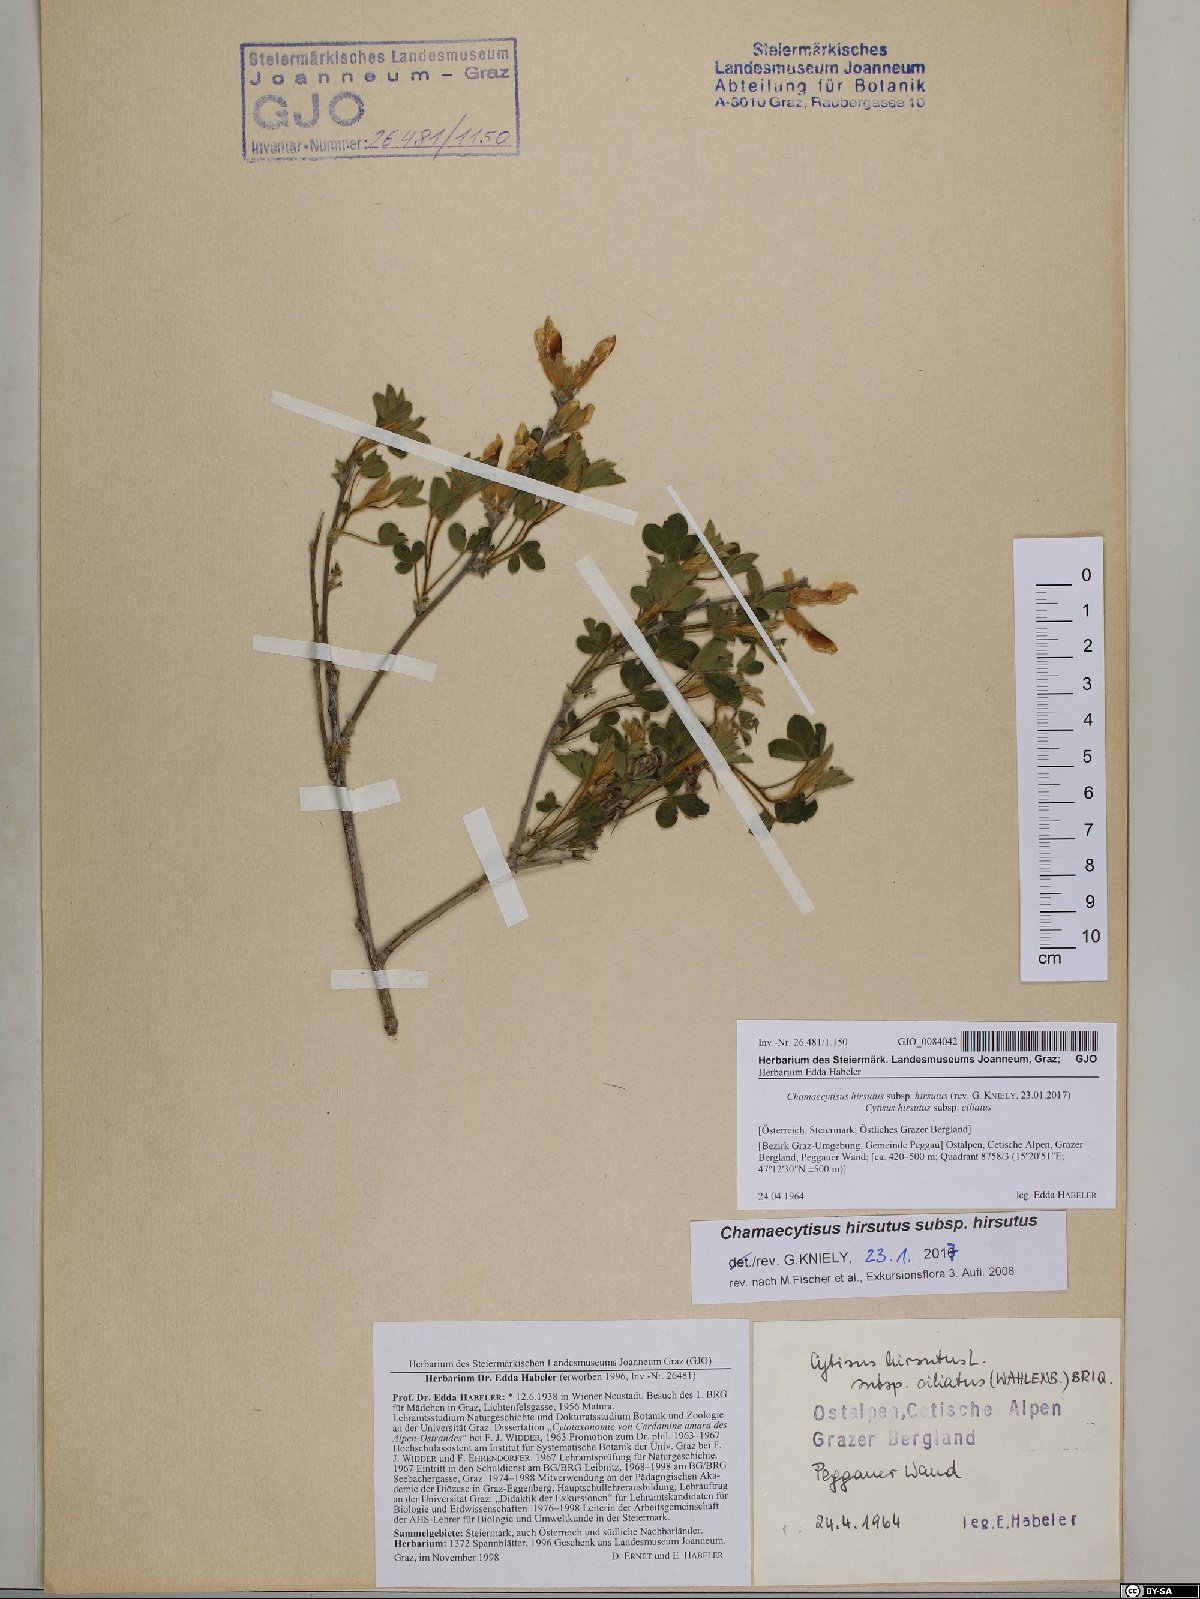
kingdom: Plantae
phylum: Tracheophyta
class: Magnoliopsida
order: Fabales
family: Fabaceae
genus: Chamaecytisus
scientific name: Chamaecytisus hirsutus
